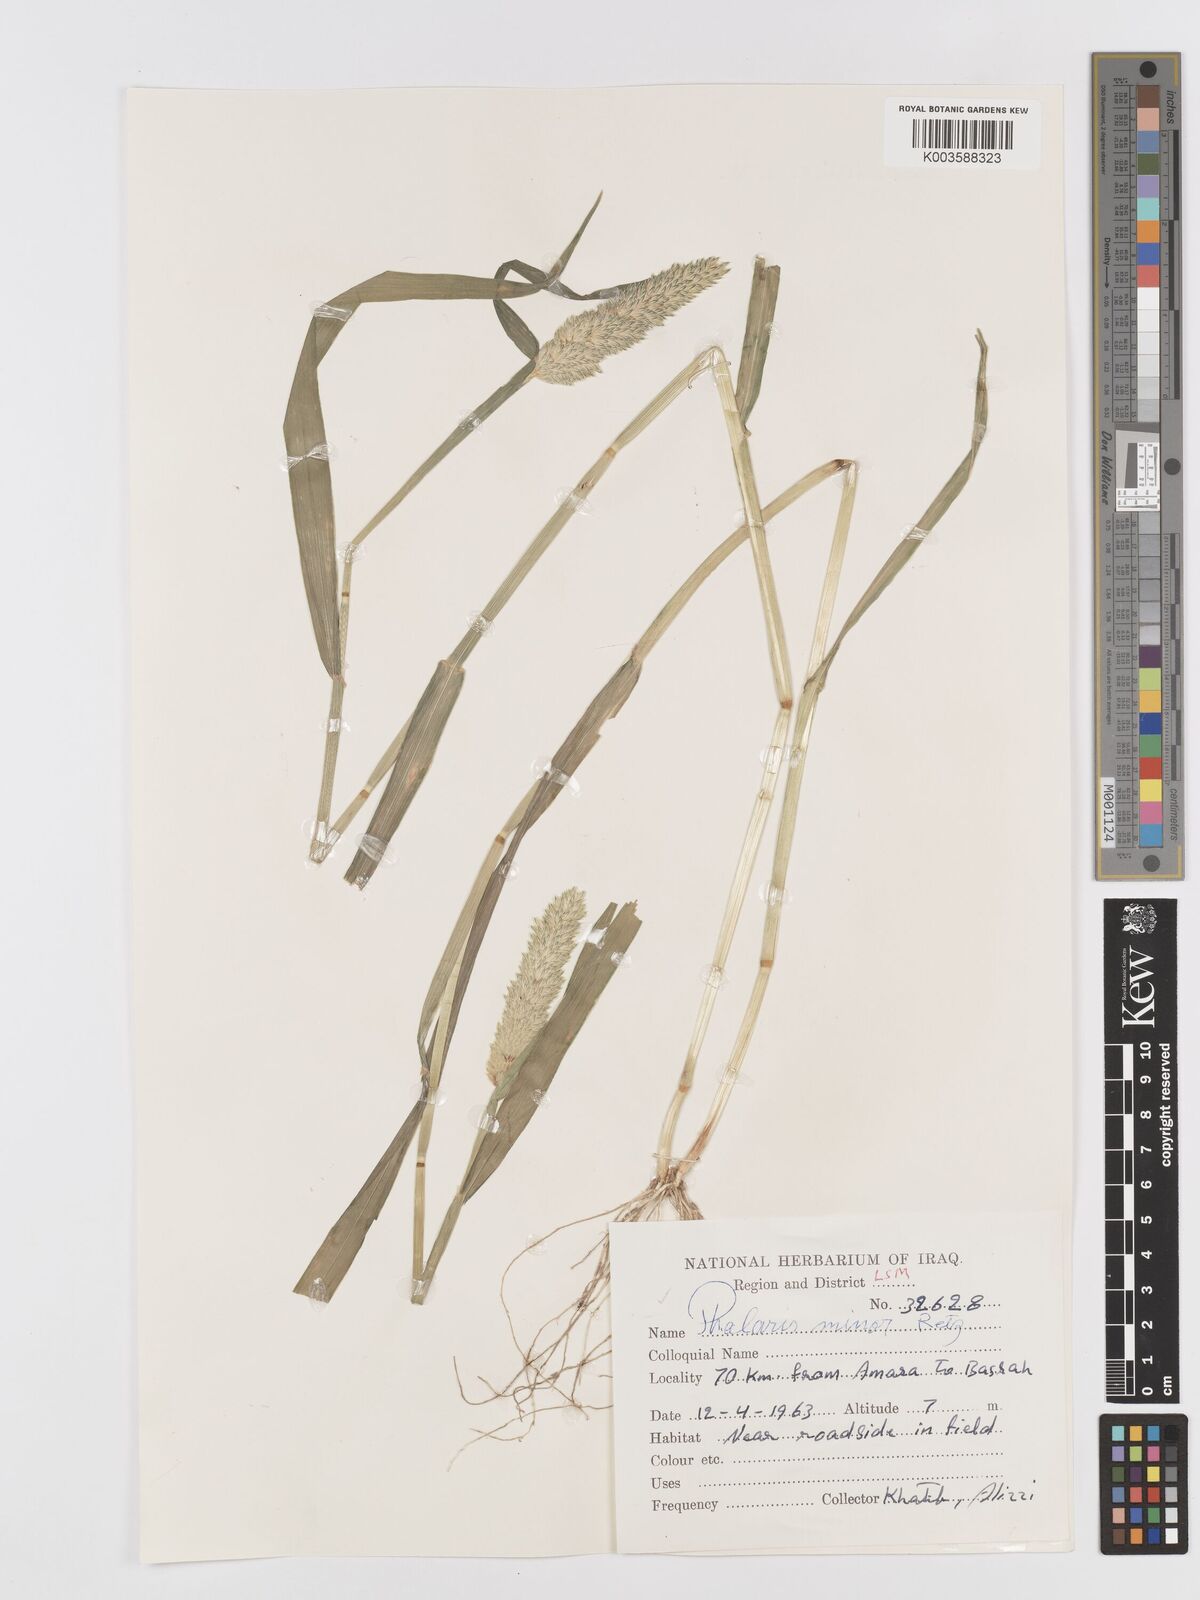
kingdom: Plantae
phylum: Tracheophyta
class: Liliopsida
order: Poales
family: Poaceae
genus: Phalaris
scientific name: Phalaris minor
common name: Littleseed canarygrass
